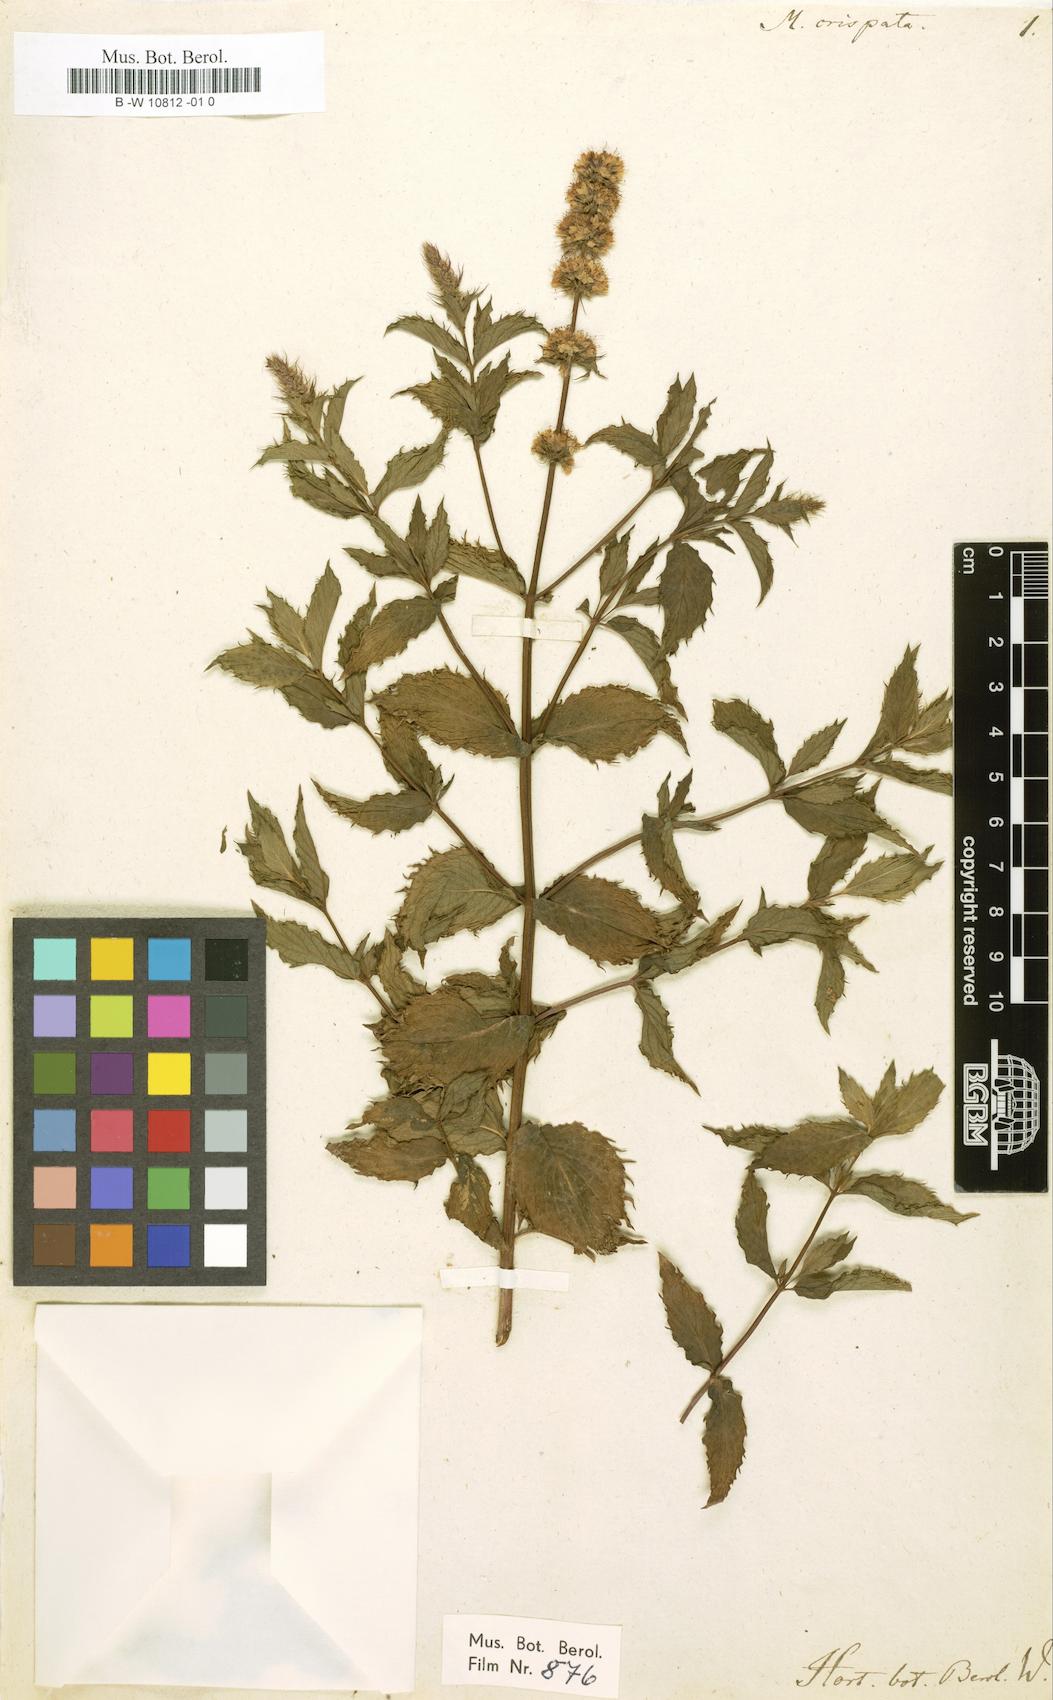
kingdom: Plantae
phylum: Tracheophyta
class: Magnoliopsida
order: Lamiales
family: Lamiaceae
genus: Mentha
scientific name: Mentha spicata
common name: Spearmint
